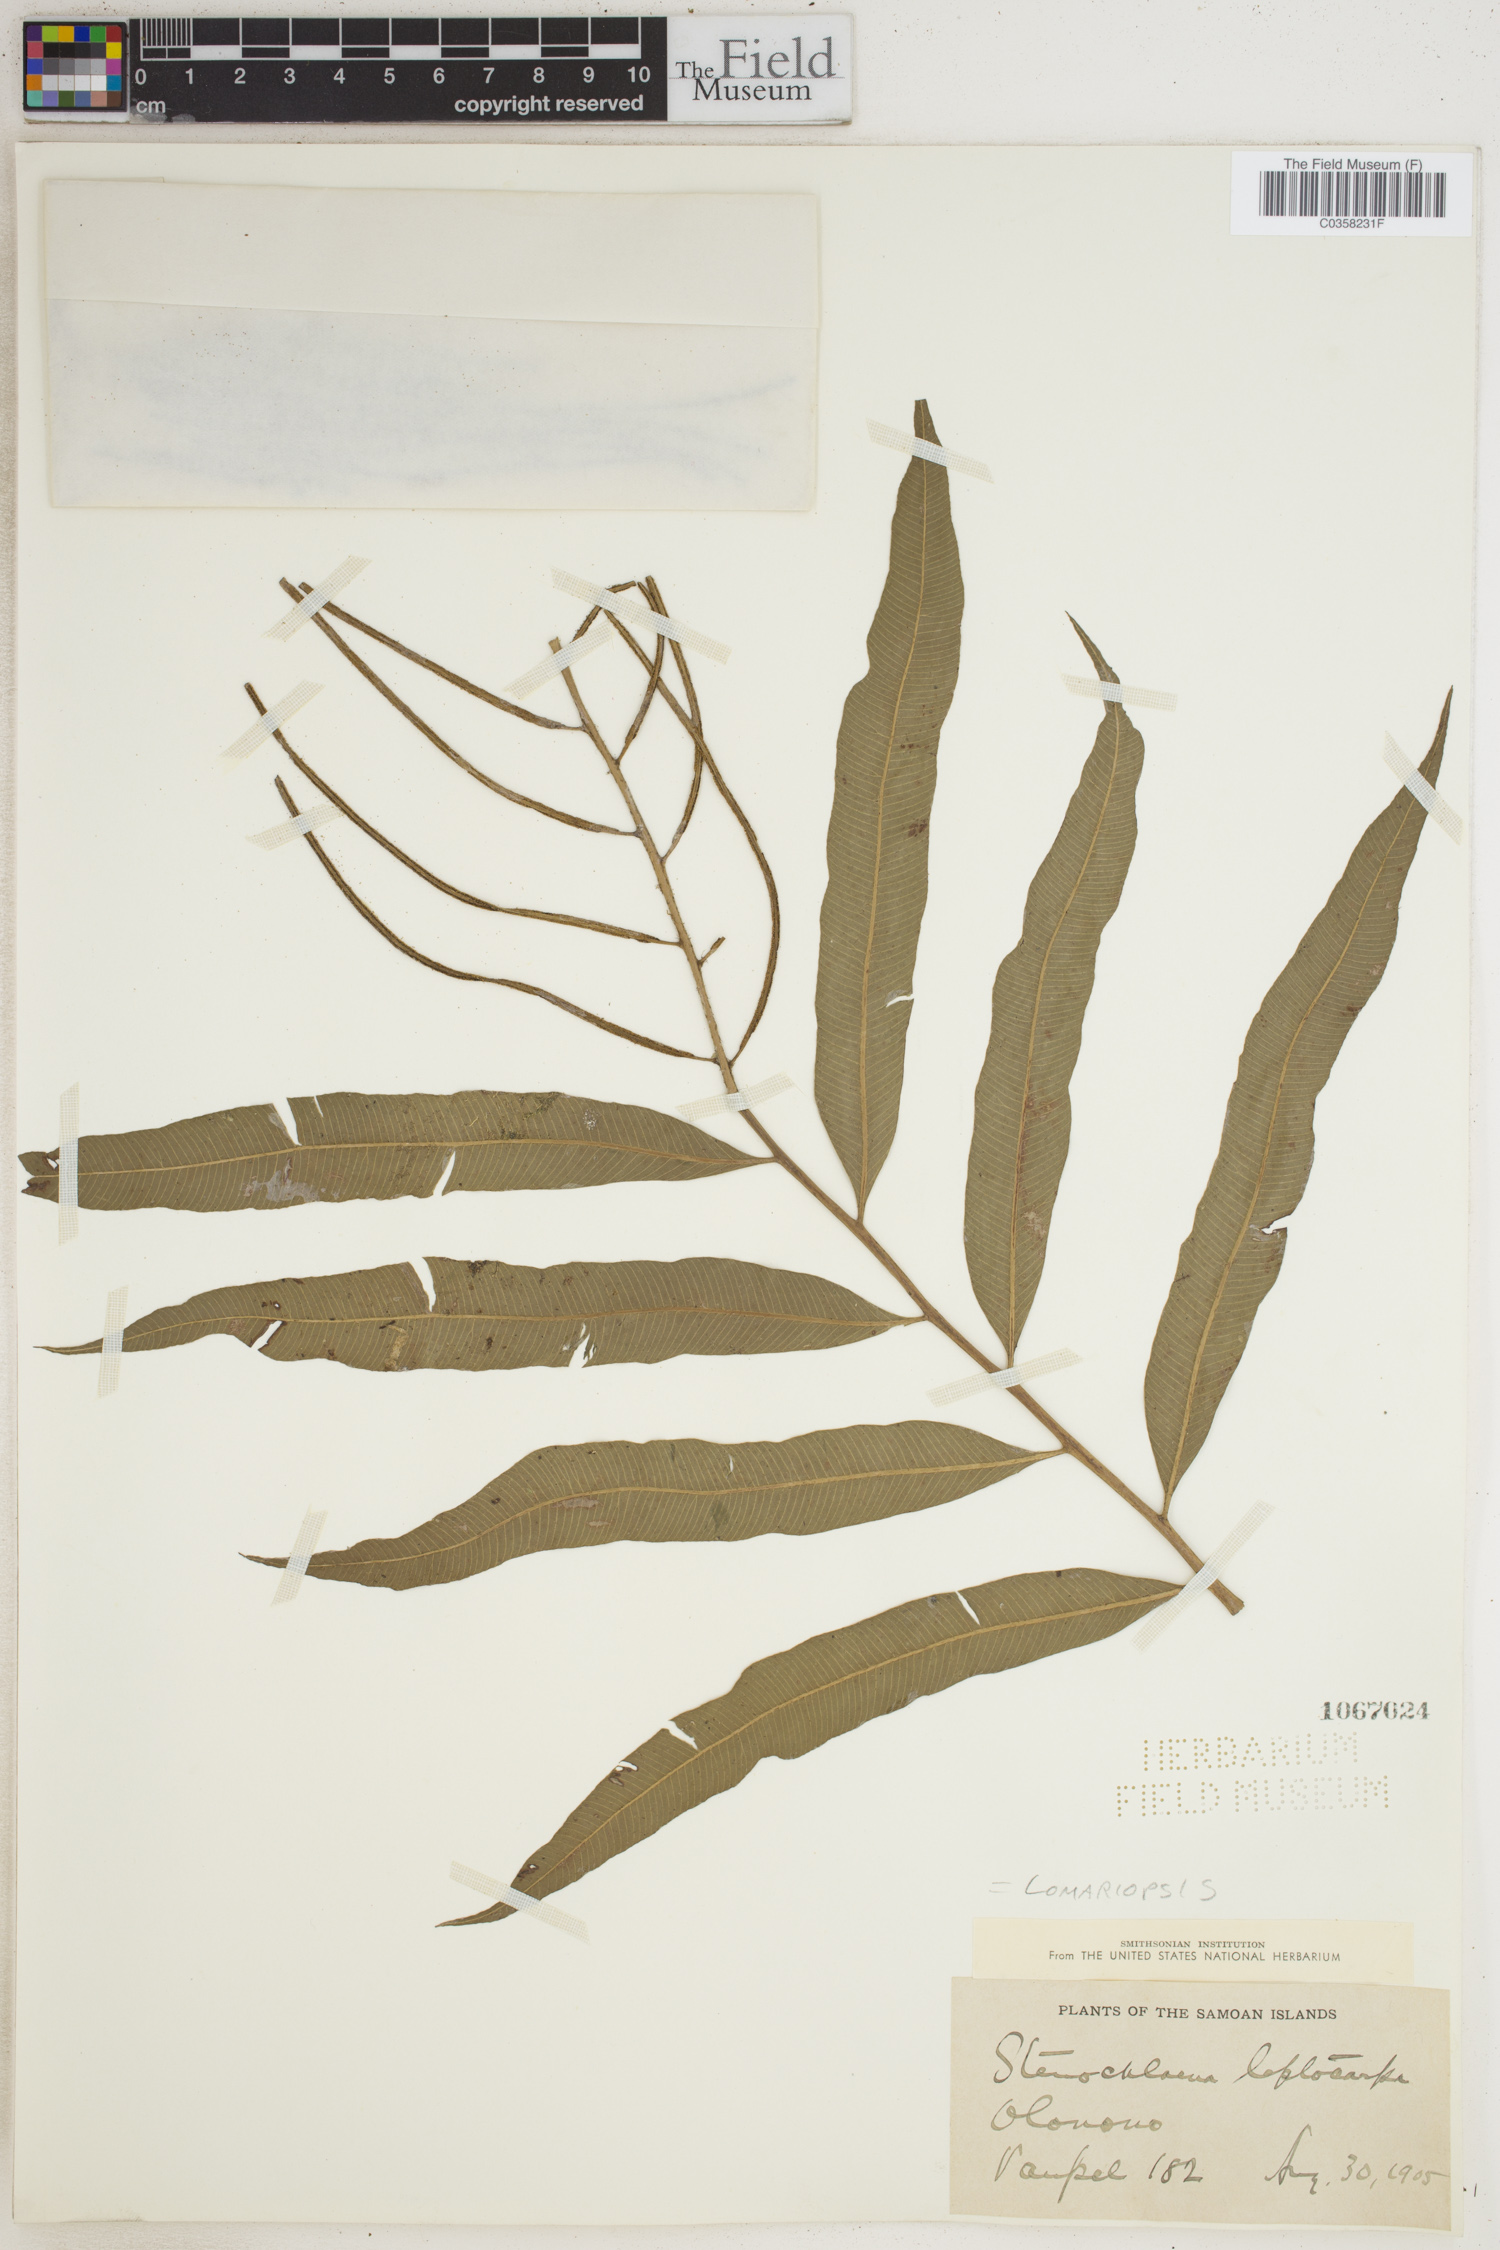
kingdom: Plantae
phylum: Tracheophyta
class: Polypodiopsida
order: Polypodiales
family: Lomariopsidaceae
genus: Lomariopsis
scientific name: Lomariopsis spectabilis
